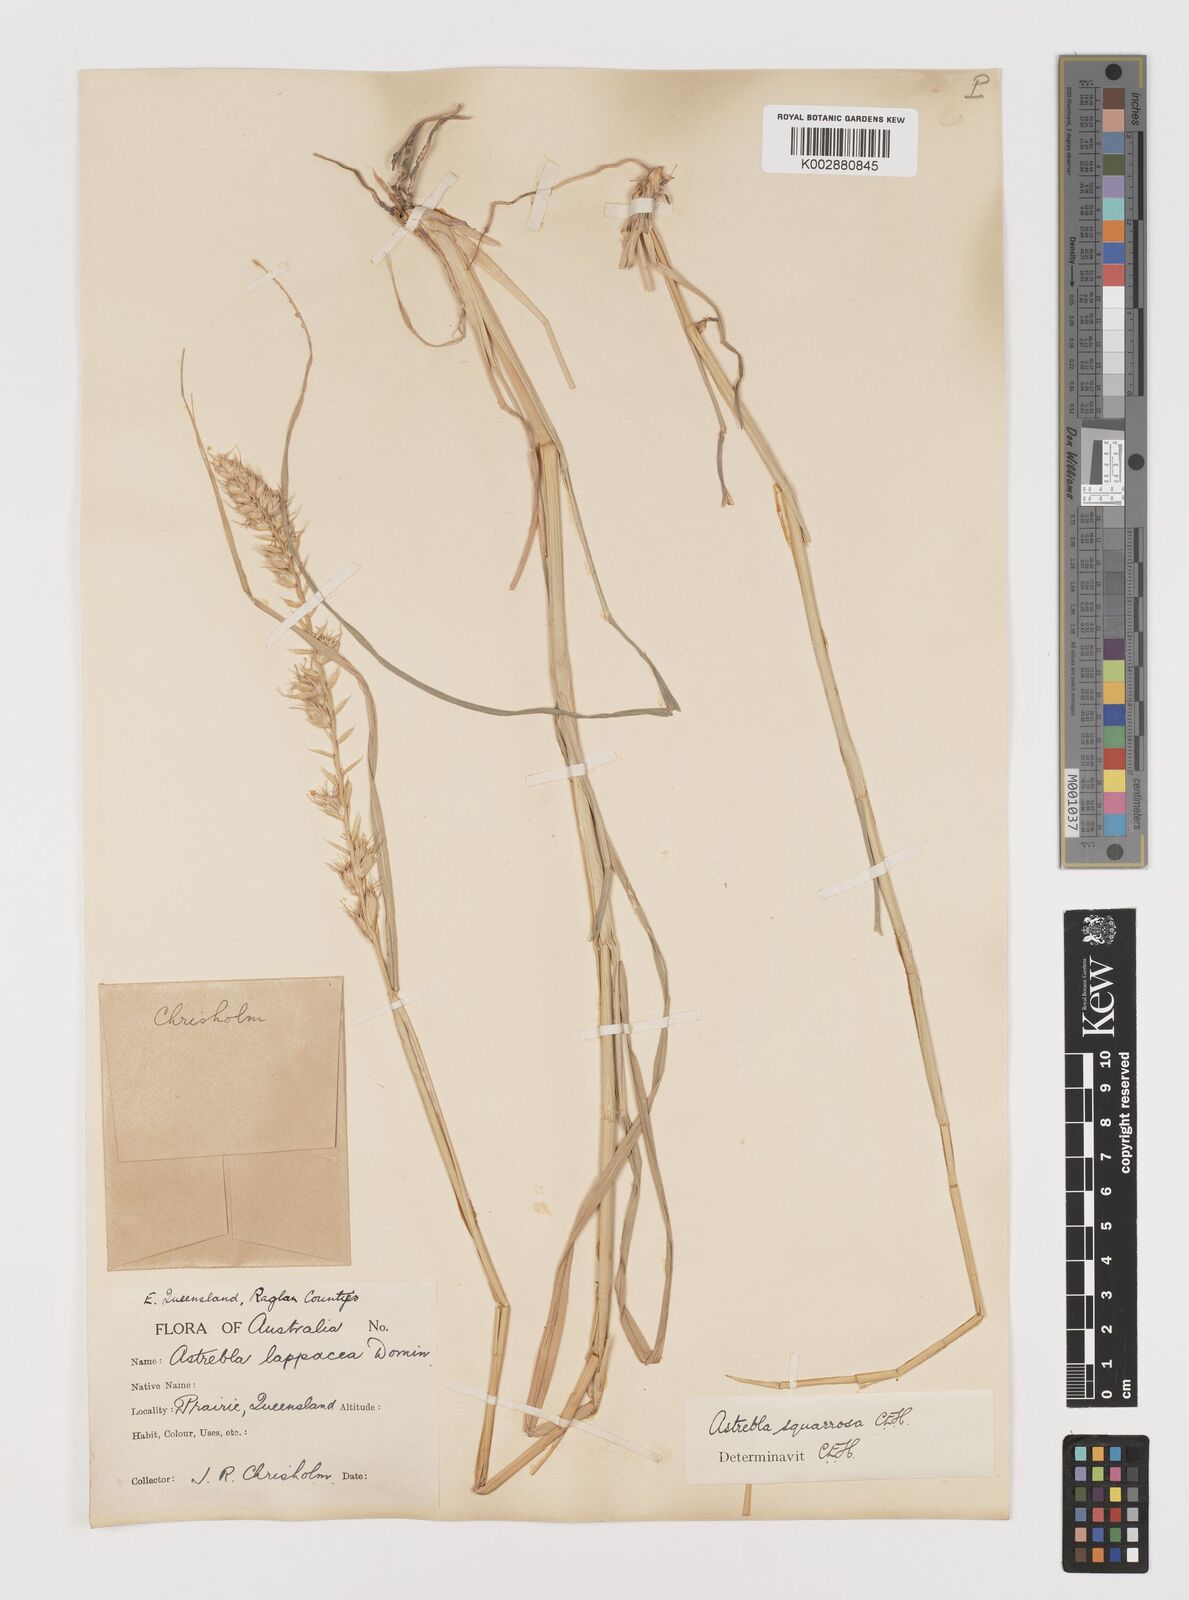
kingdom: Plantae
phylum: Tracheophyta
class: Liliopsida
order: Poales
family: Poaceae
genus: Astrebla
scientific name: Astrebla squarrosa
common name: Wheat-ear mitchell grass
